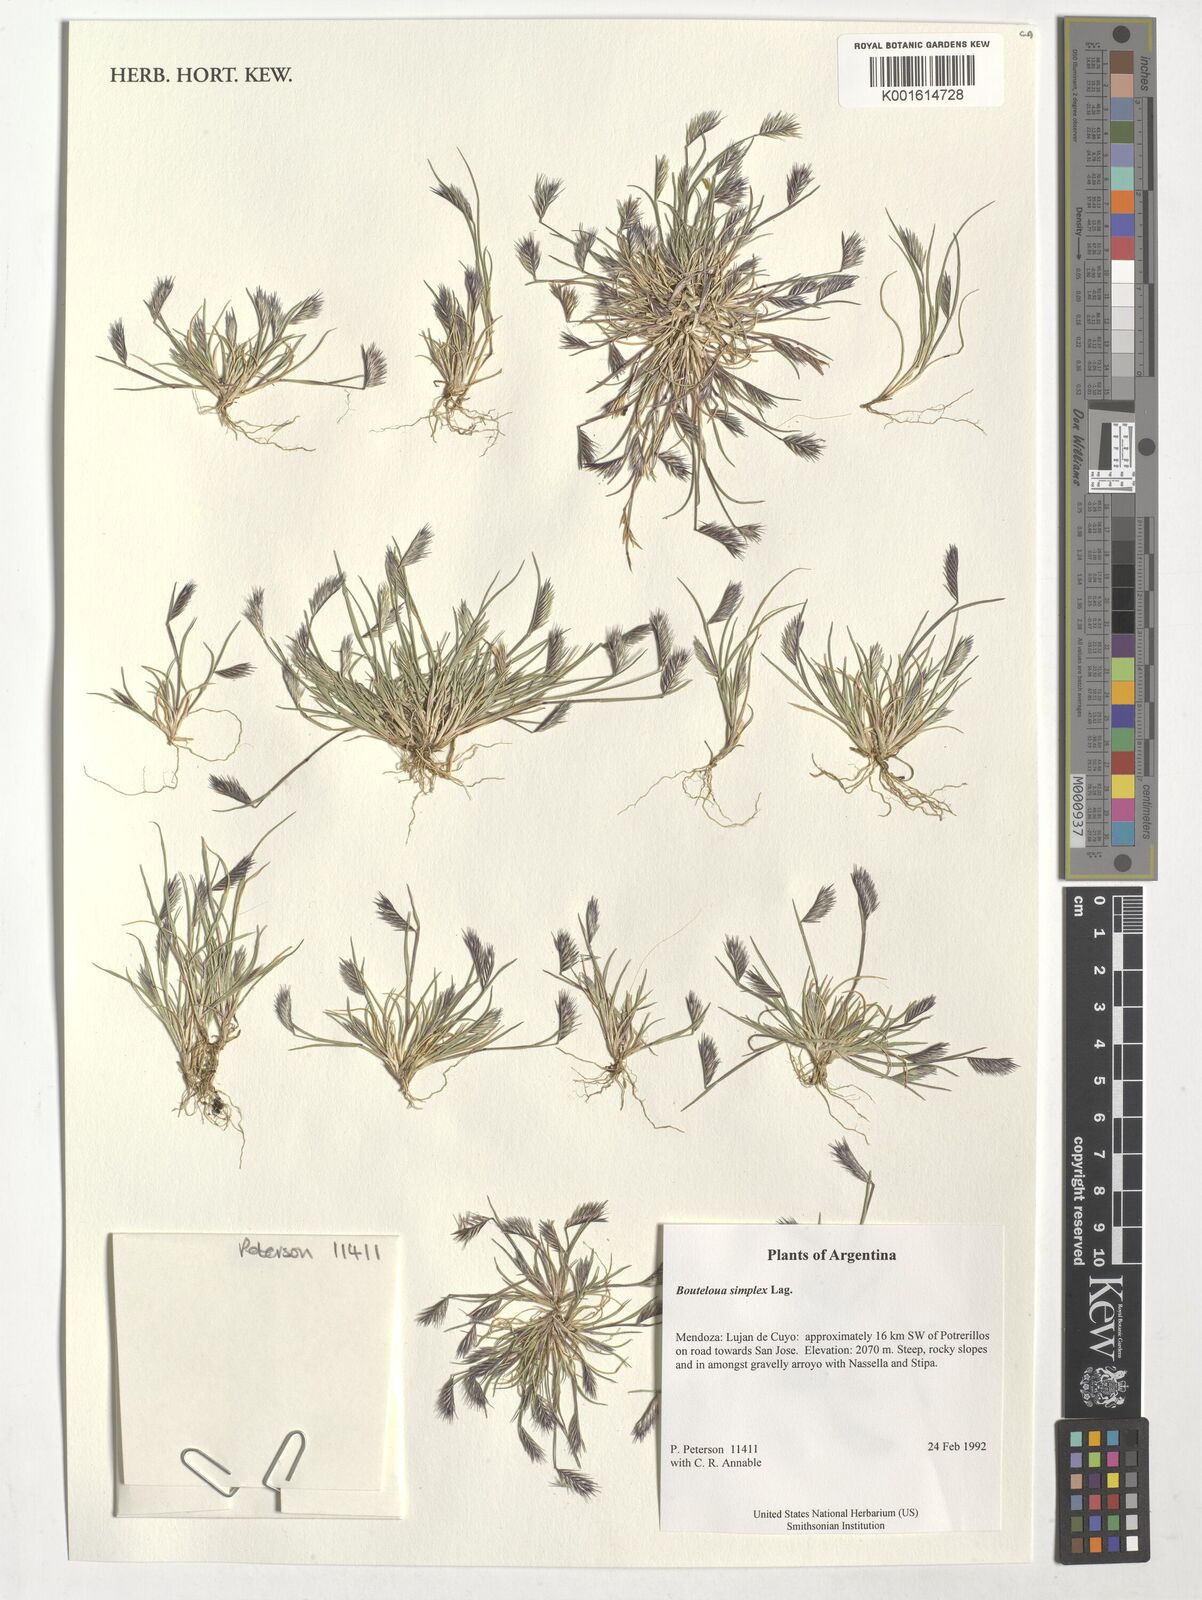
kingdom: Plantae
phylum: Tracheophyta
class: Liliopsida
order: Poales
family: Poaceae
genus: Bouteloua
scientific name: Bouteloua simplex
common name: Mat grama
